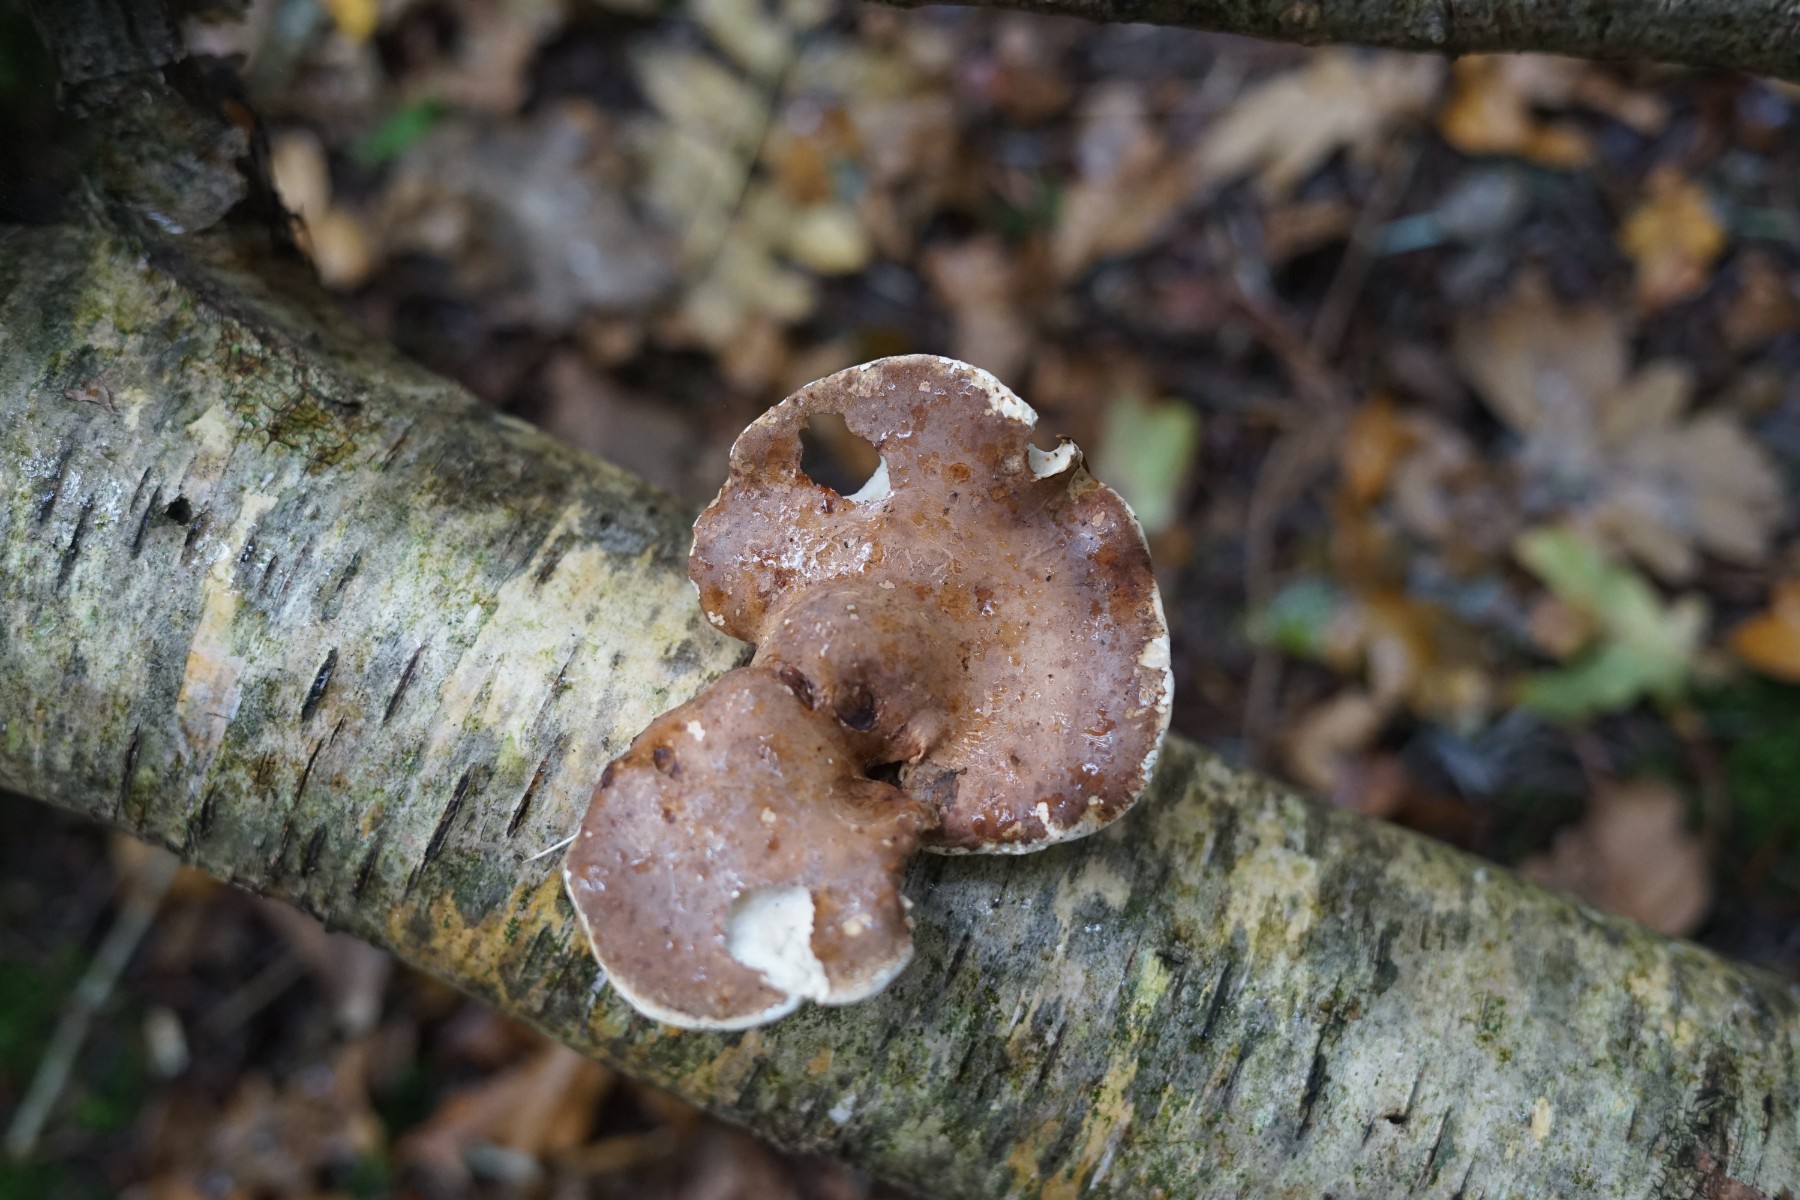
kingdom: Fungi
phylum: Basidiomycota
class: Agaricomycetes
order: Polyporales
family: Fomitopsidaceae
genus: Fomitopsis
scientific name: Fomitopsis betulina
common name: birkeporesvamp
